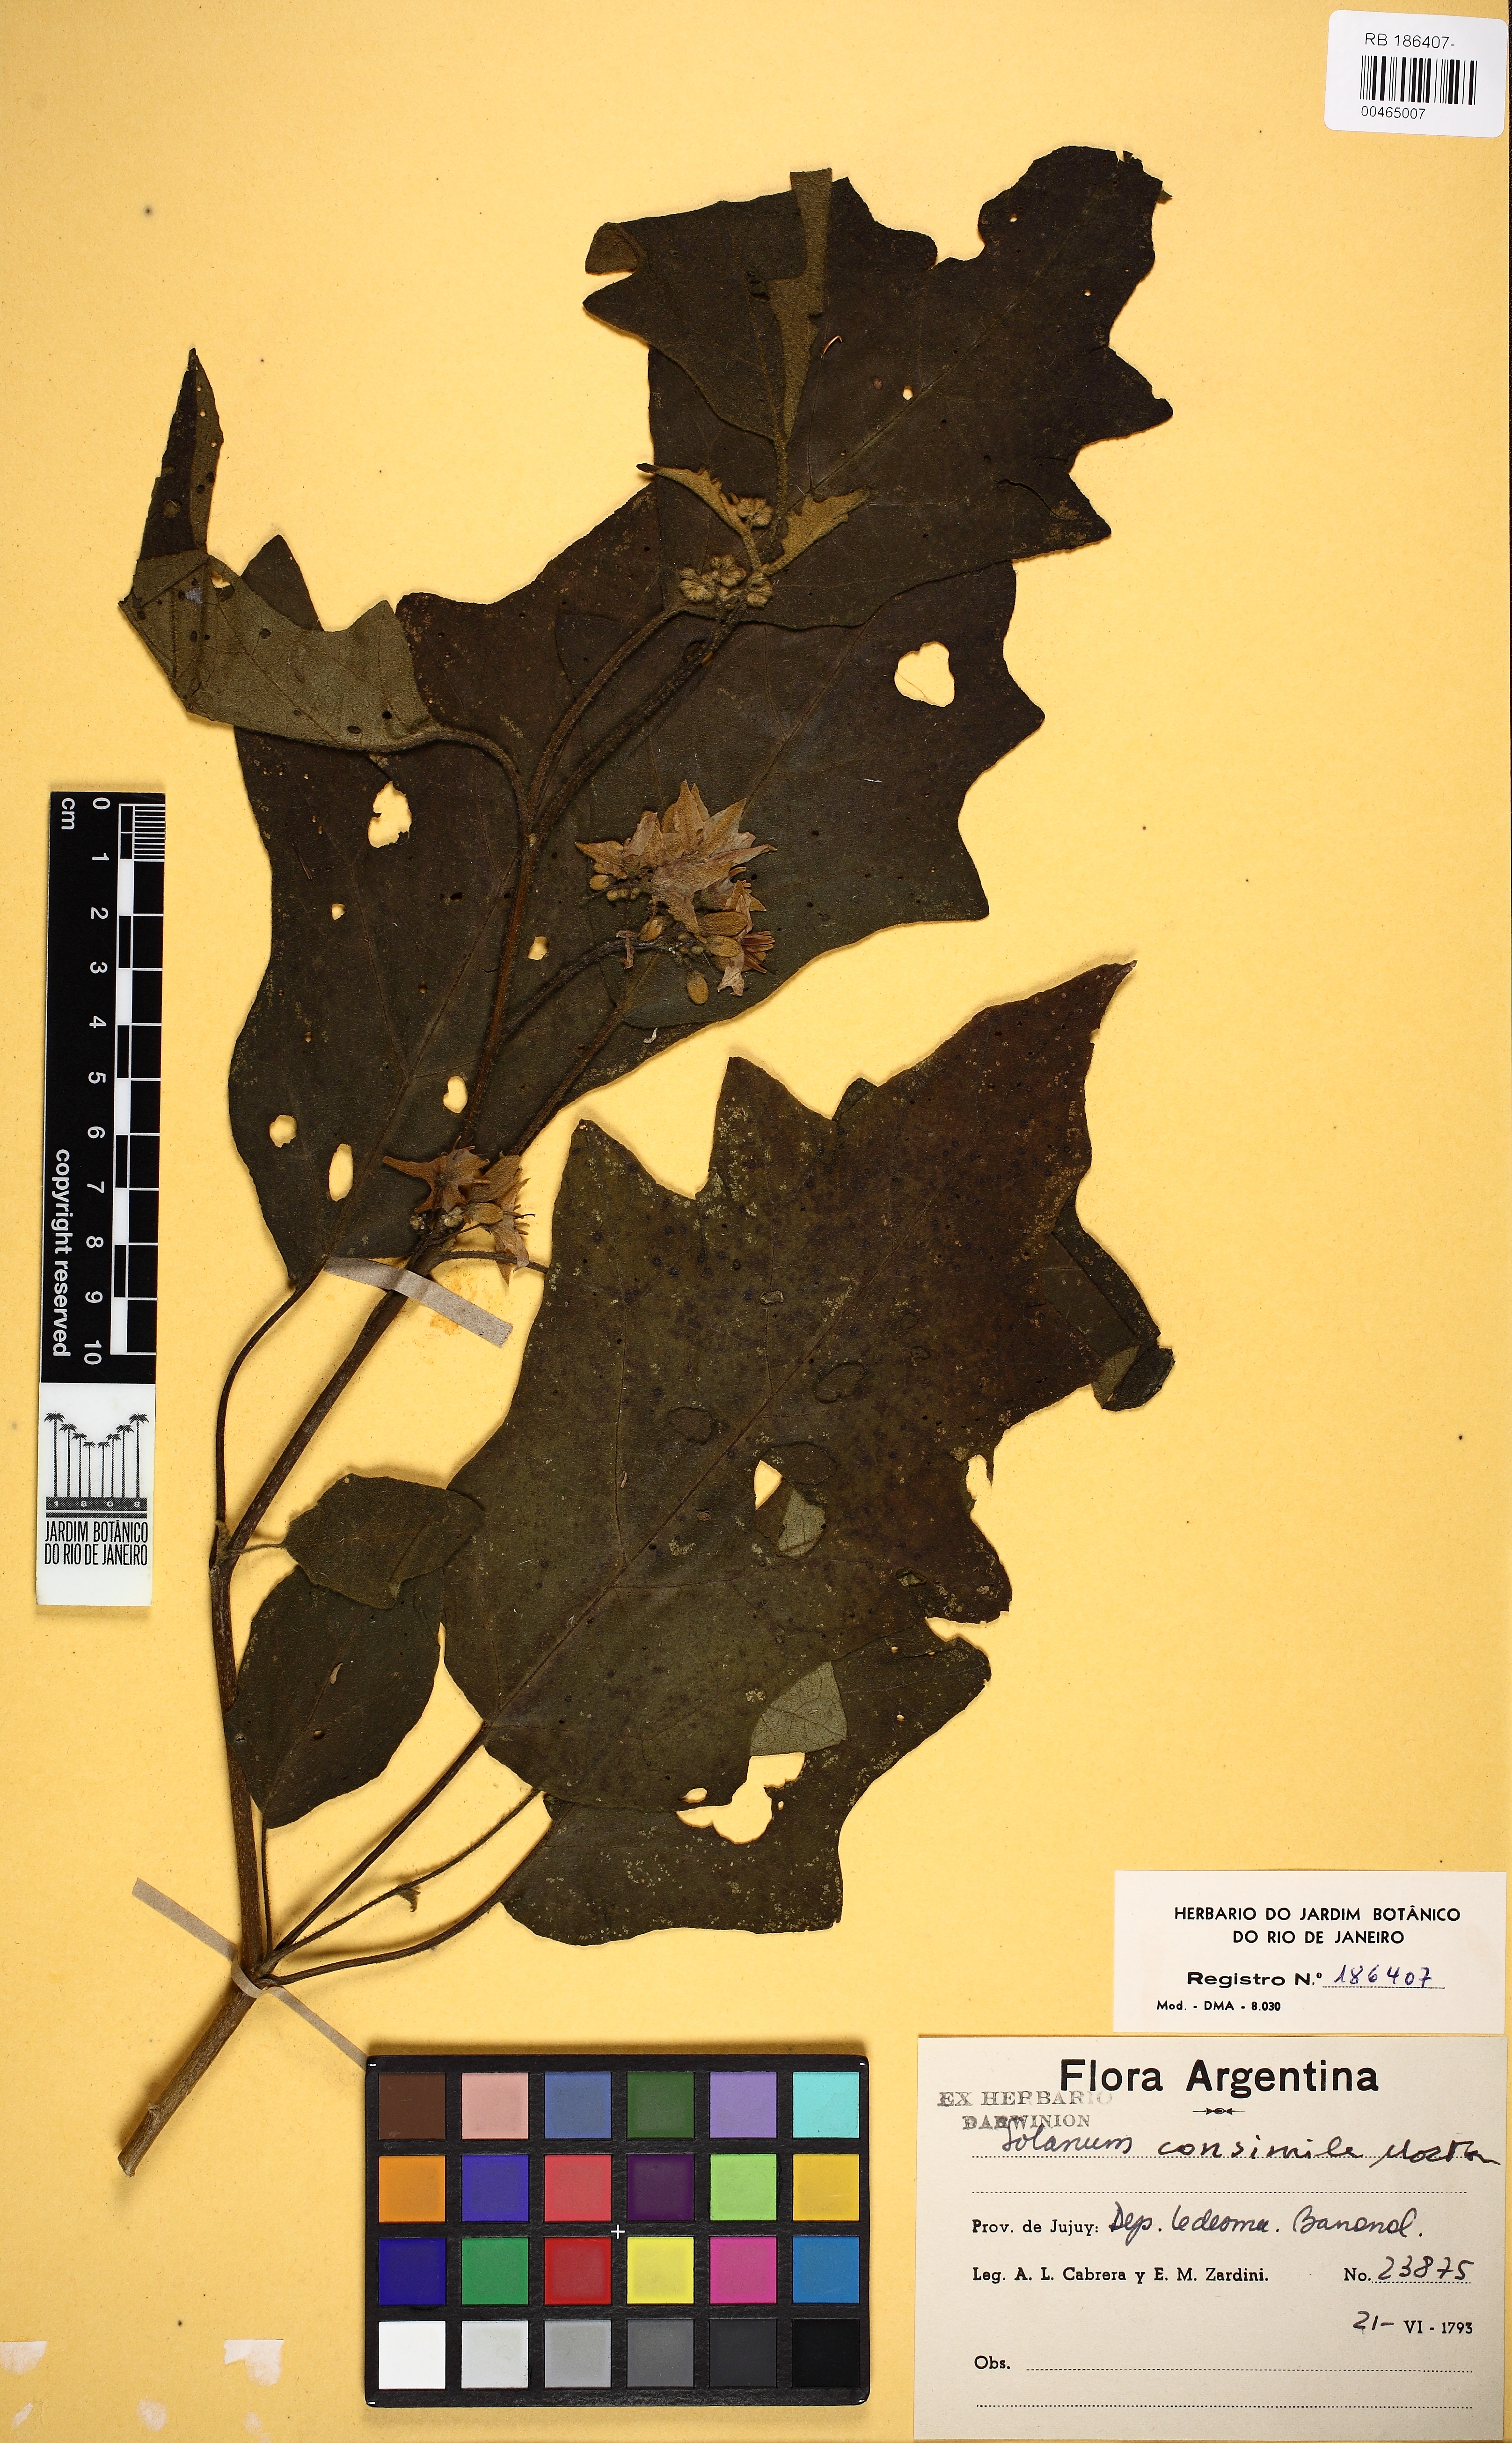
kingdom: Plantae
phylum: Tracheophyta
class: Magnoliopsida
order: Solanales
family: Solanaceae
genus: Solanum
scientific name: Solanum consimile
